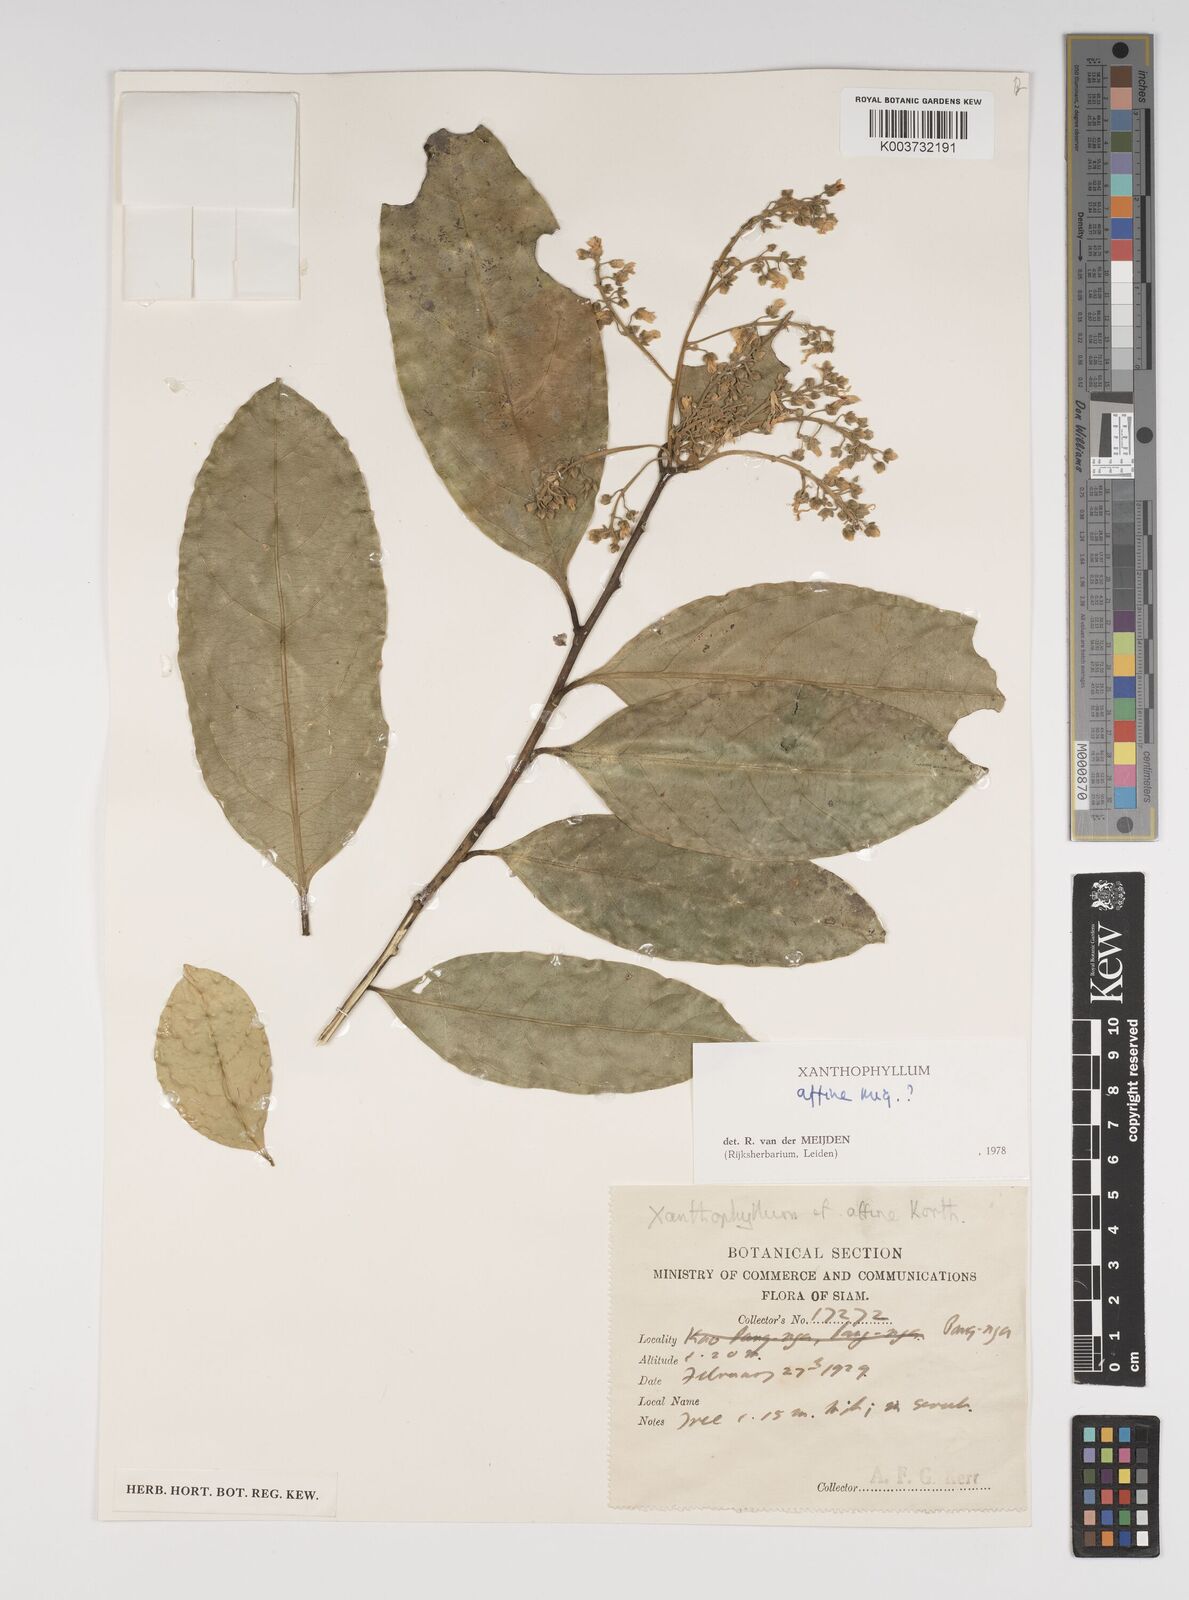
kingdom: Plantae
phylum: Tracheophyta
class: Magnoliopsida
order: Fabales
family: Polygalaceae
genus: Xanthophyllum
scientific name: Xanthophyllum flavescens
